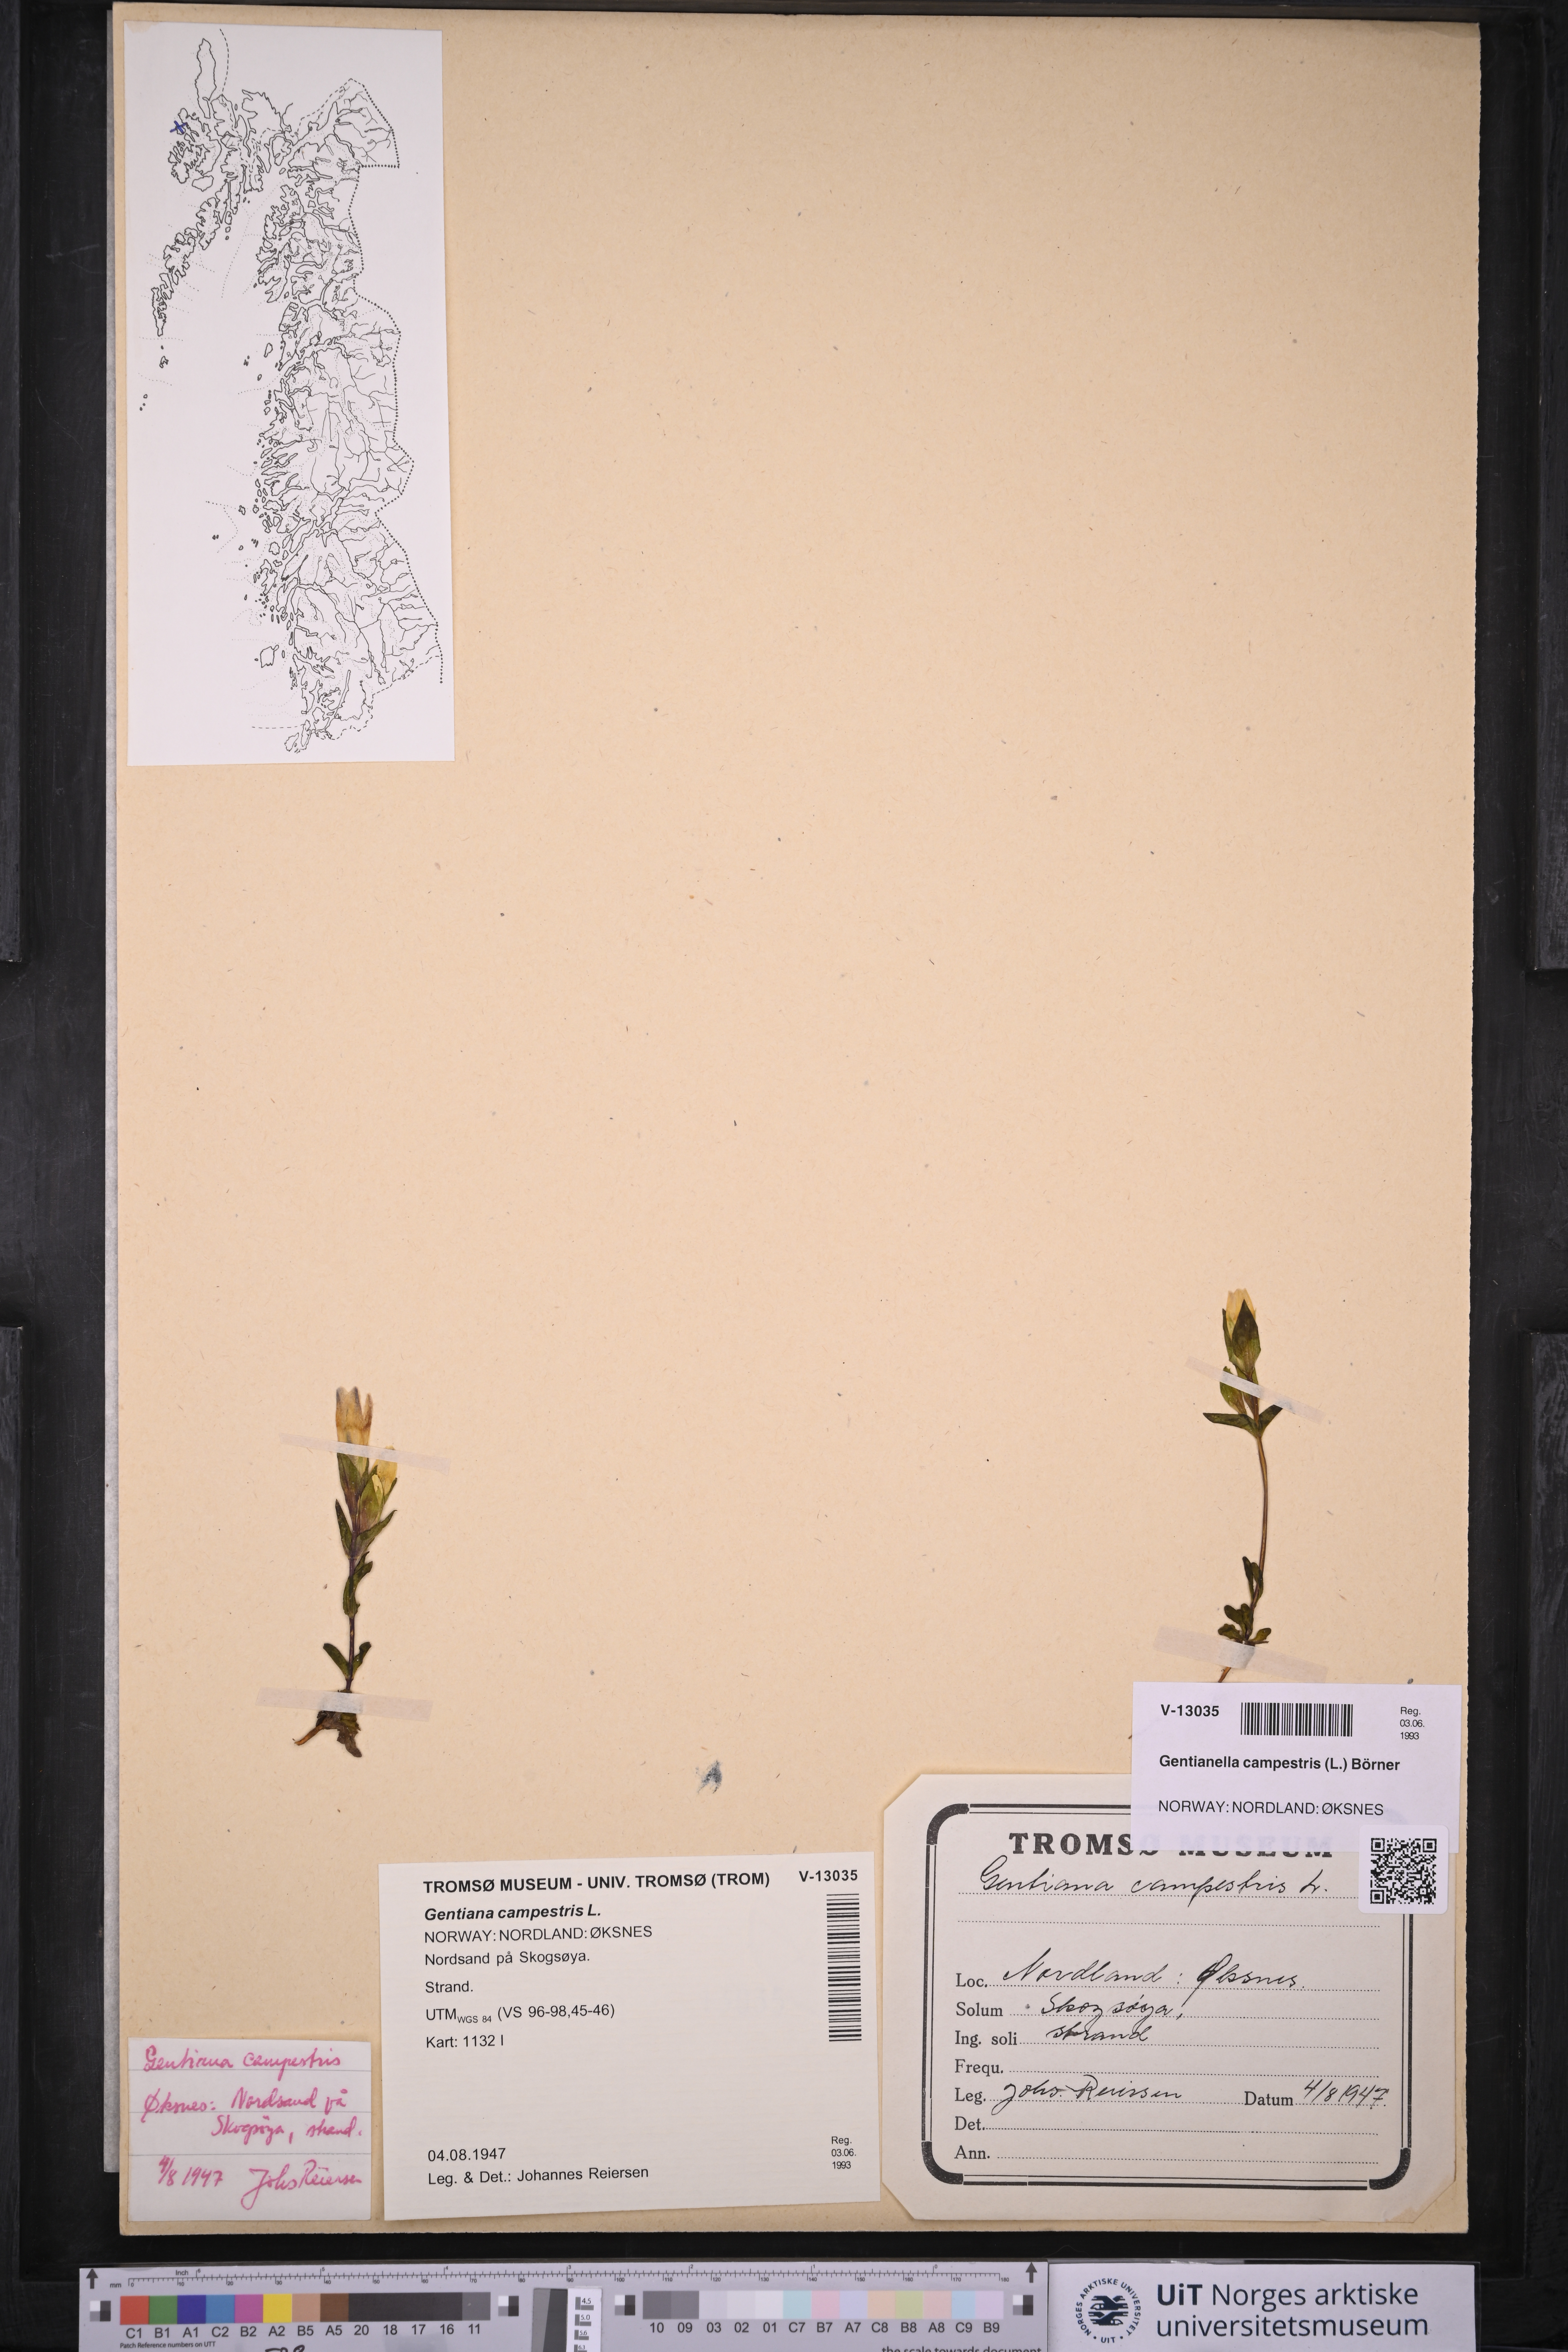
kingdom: Plantae
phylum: Tracheophyta
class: Magnoliopsida
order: Gentianales
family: Gentianaceae
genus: Gentianella
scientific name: Gentianella campestris
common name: Field gentian
